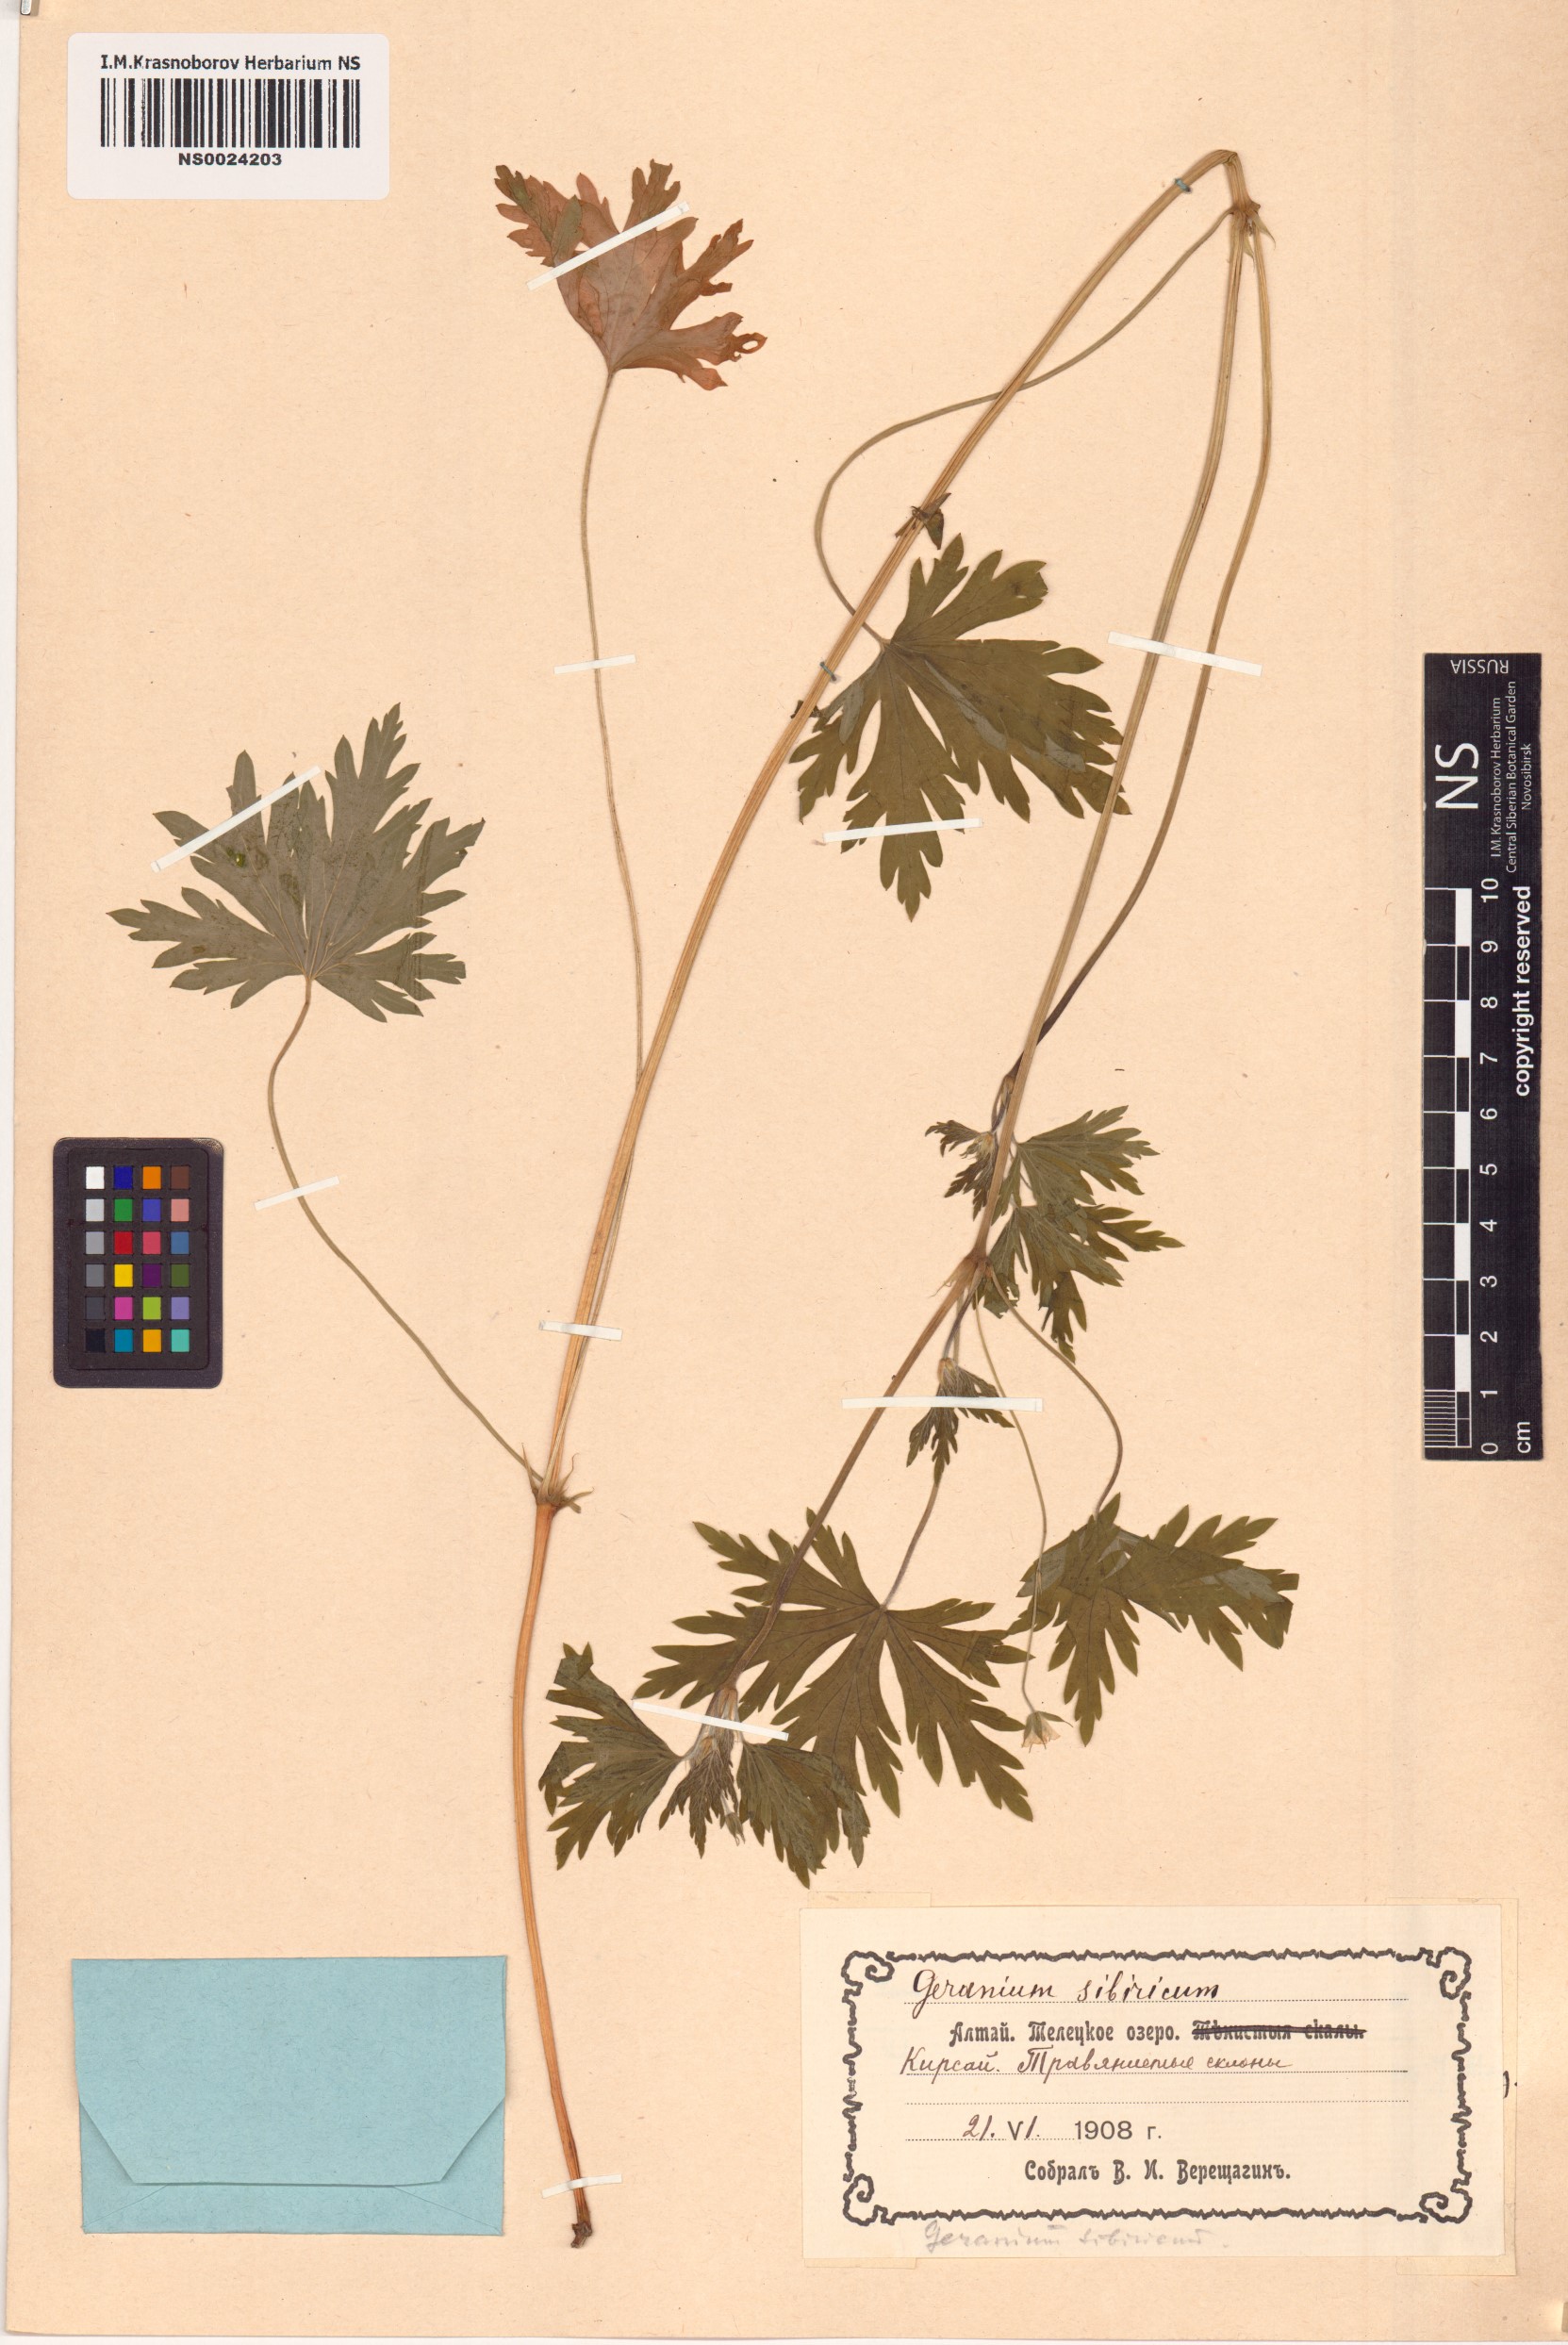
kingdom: Plantae
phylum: Tracheophyta
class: Magnoliopsida
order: Geraniales
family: Geraniaceae
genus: Geranium
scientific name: Geranium sibiricum
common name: Siberian crane's-bill
